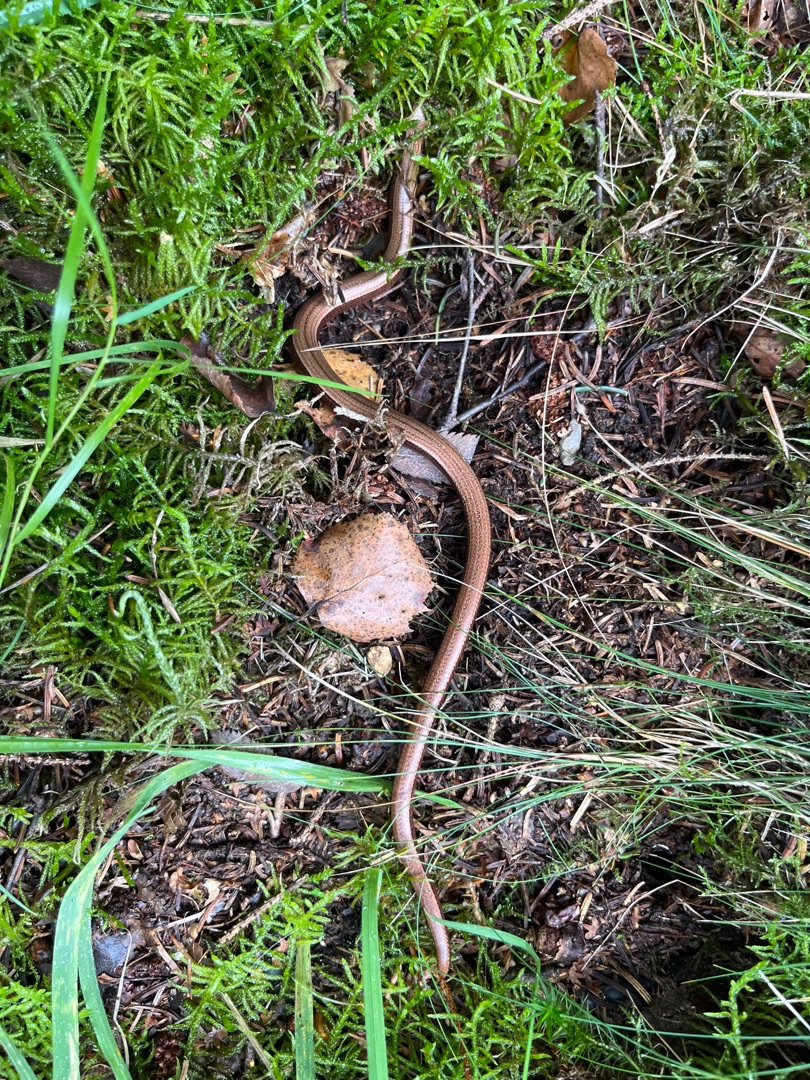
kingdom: Animalia
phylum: Chordata
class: Squamata
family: Anguidae
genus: Anguis
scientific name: Anguis fragilis
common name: Stålorm
